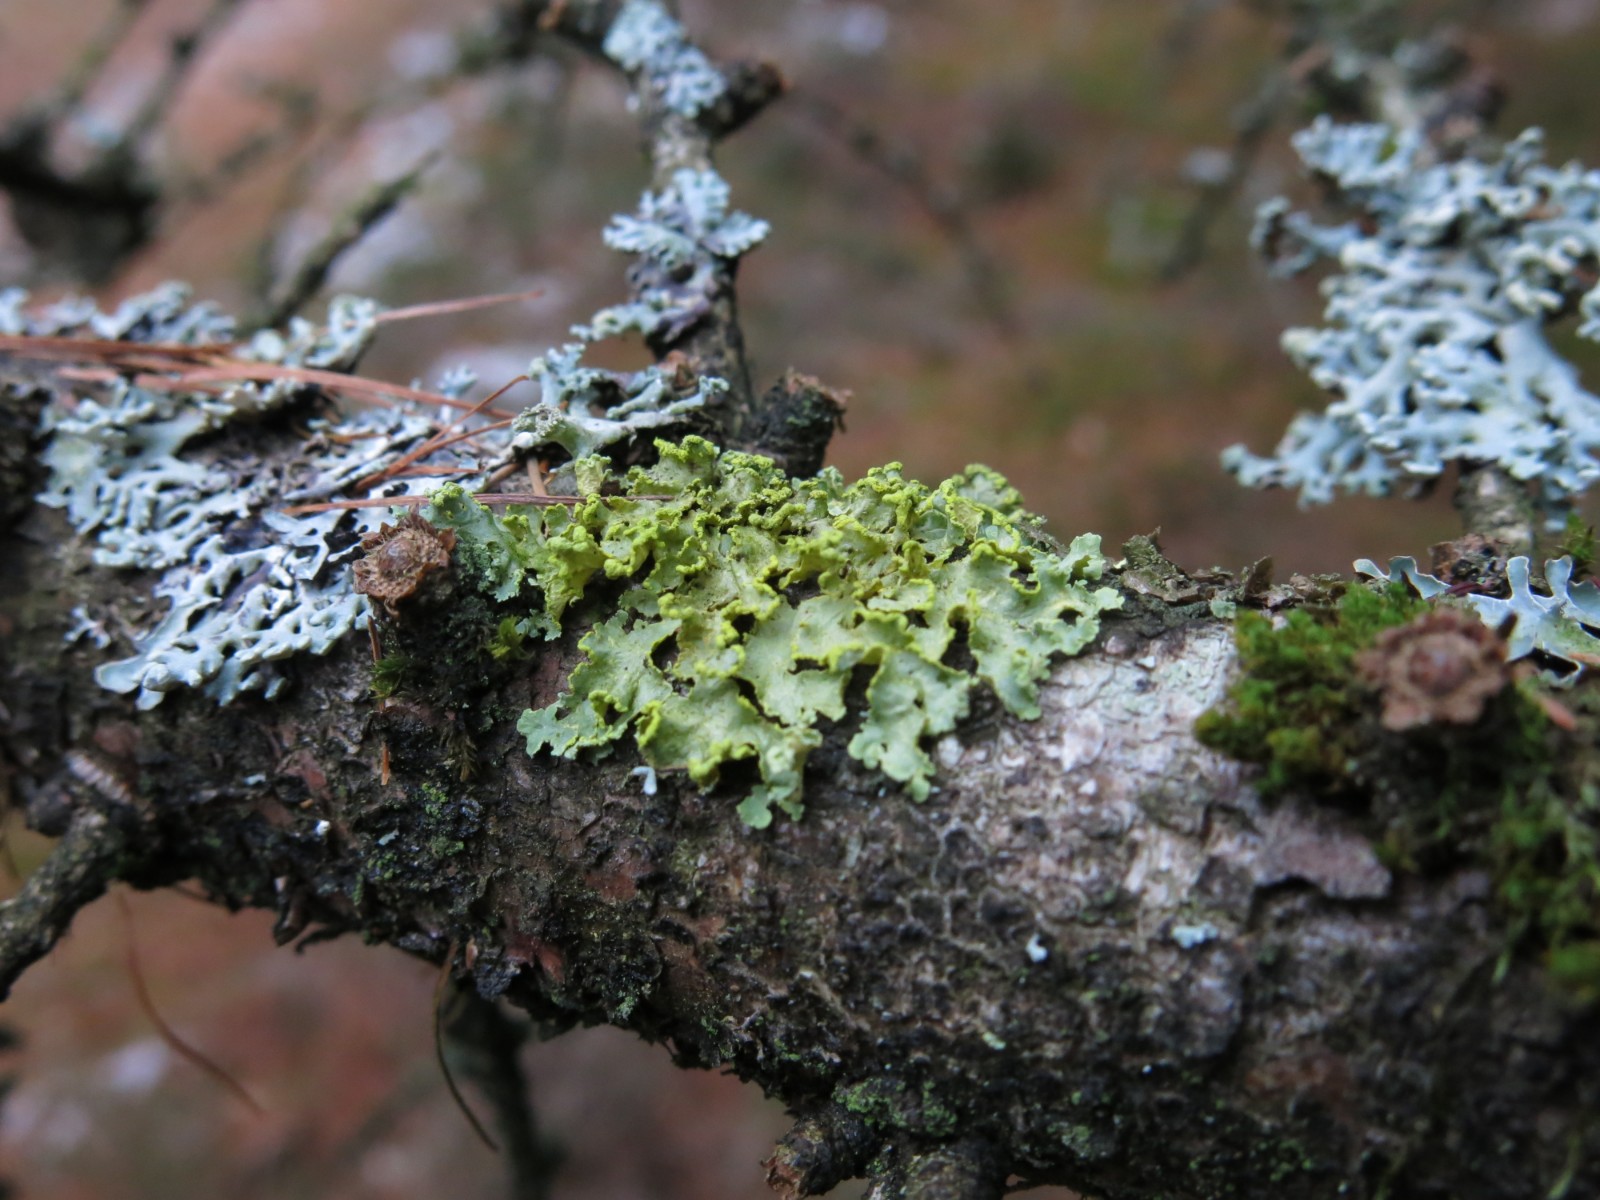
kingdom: Fungi
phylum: Ascomycota
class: Lecanoromycetes
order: Lecanorales
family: Parmeliaceae
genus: Vulpicida
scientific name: Vulpicida pinastri
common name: gul kruslav
